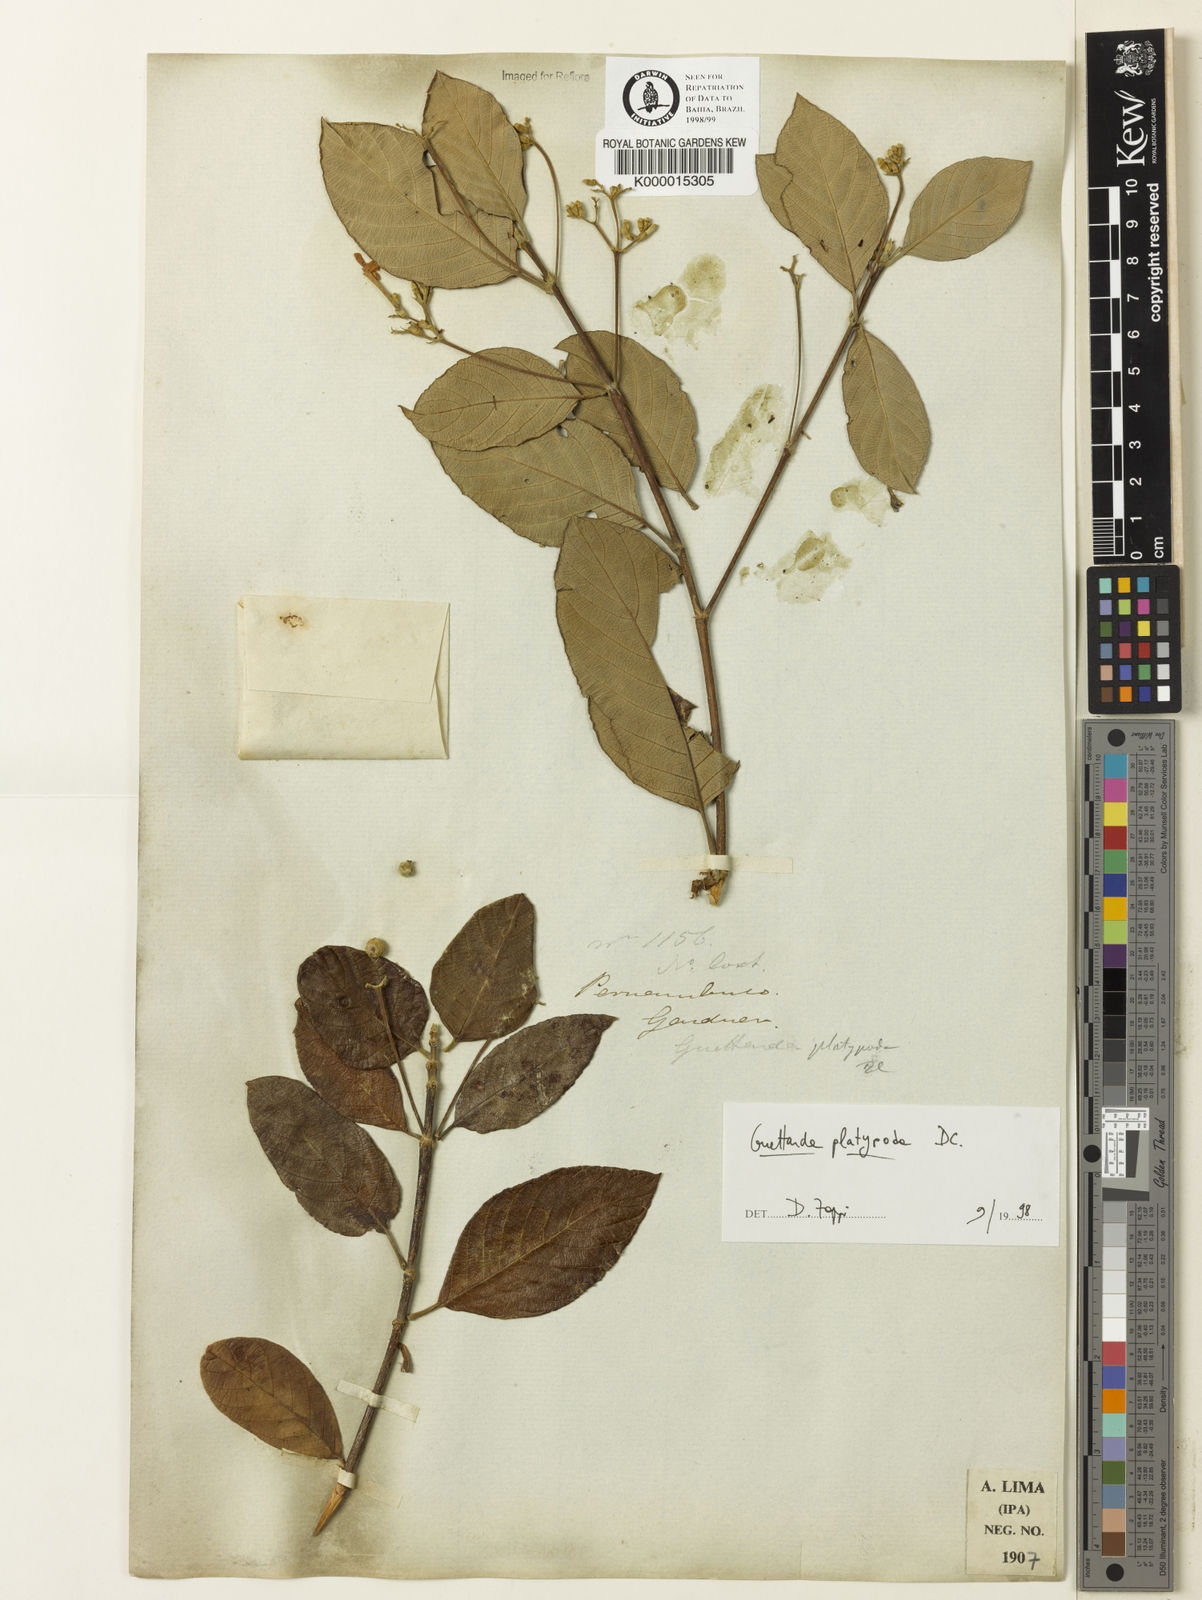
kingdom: Plantae
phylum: Tracheophyta
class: Magnoliopsida
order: Gentianales
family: Rubiaceae
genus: Guettarda
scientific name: Guettarda platypoda
